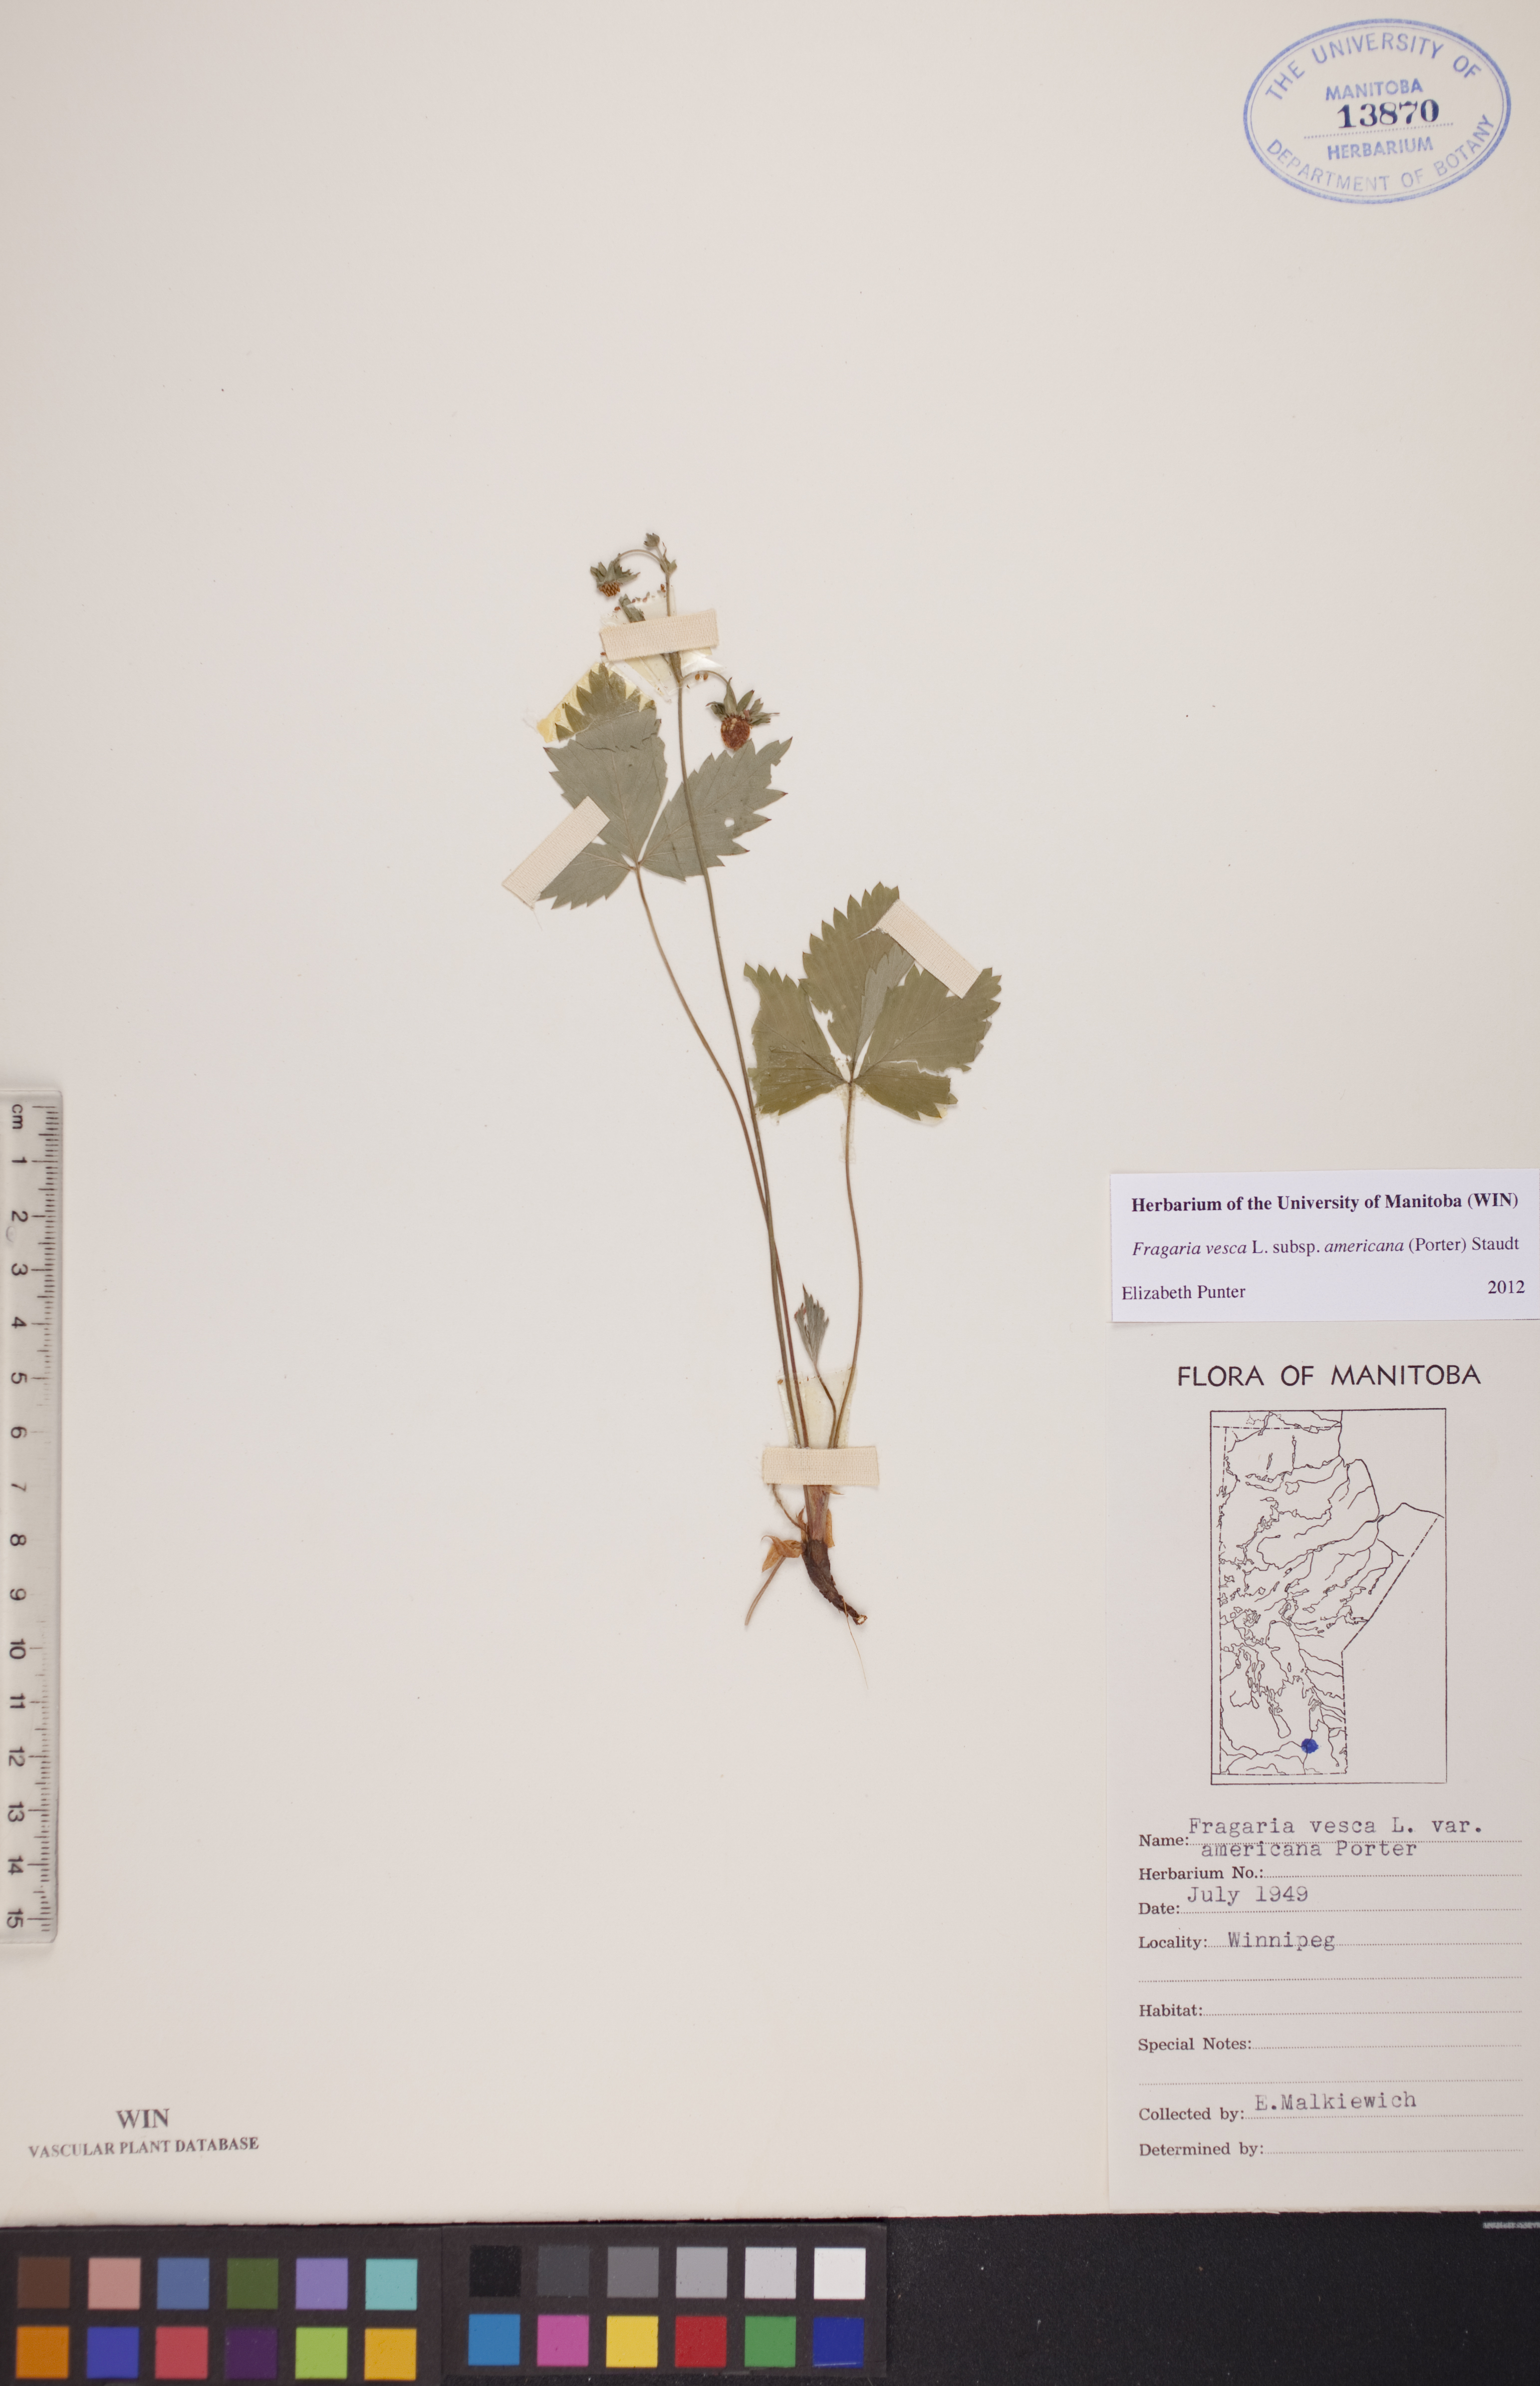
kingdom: Plantae
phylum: Tracheophyta
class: Magnoliopsida
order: Rosales
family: Rosaceae
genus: Fragaria
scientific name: Fragaria vesca
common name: Wild strawberry
